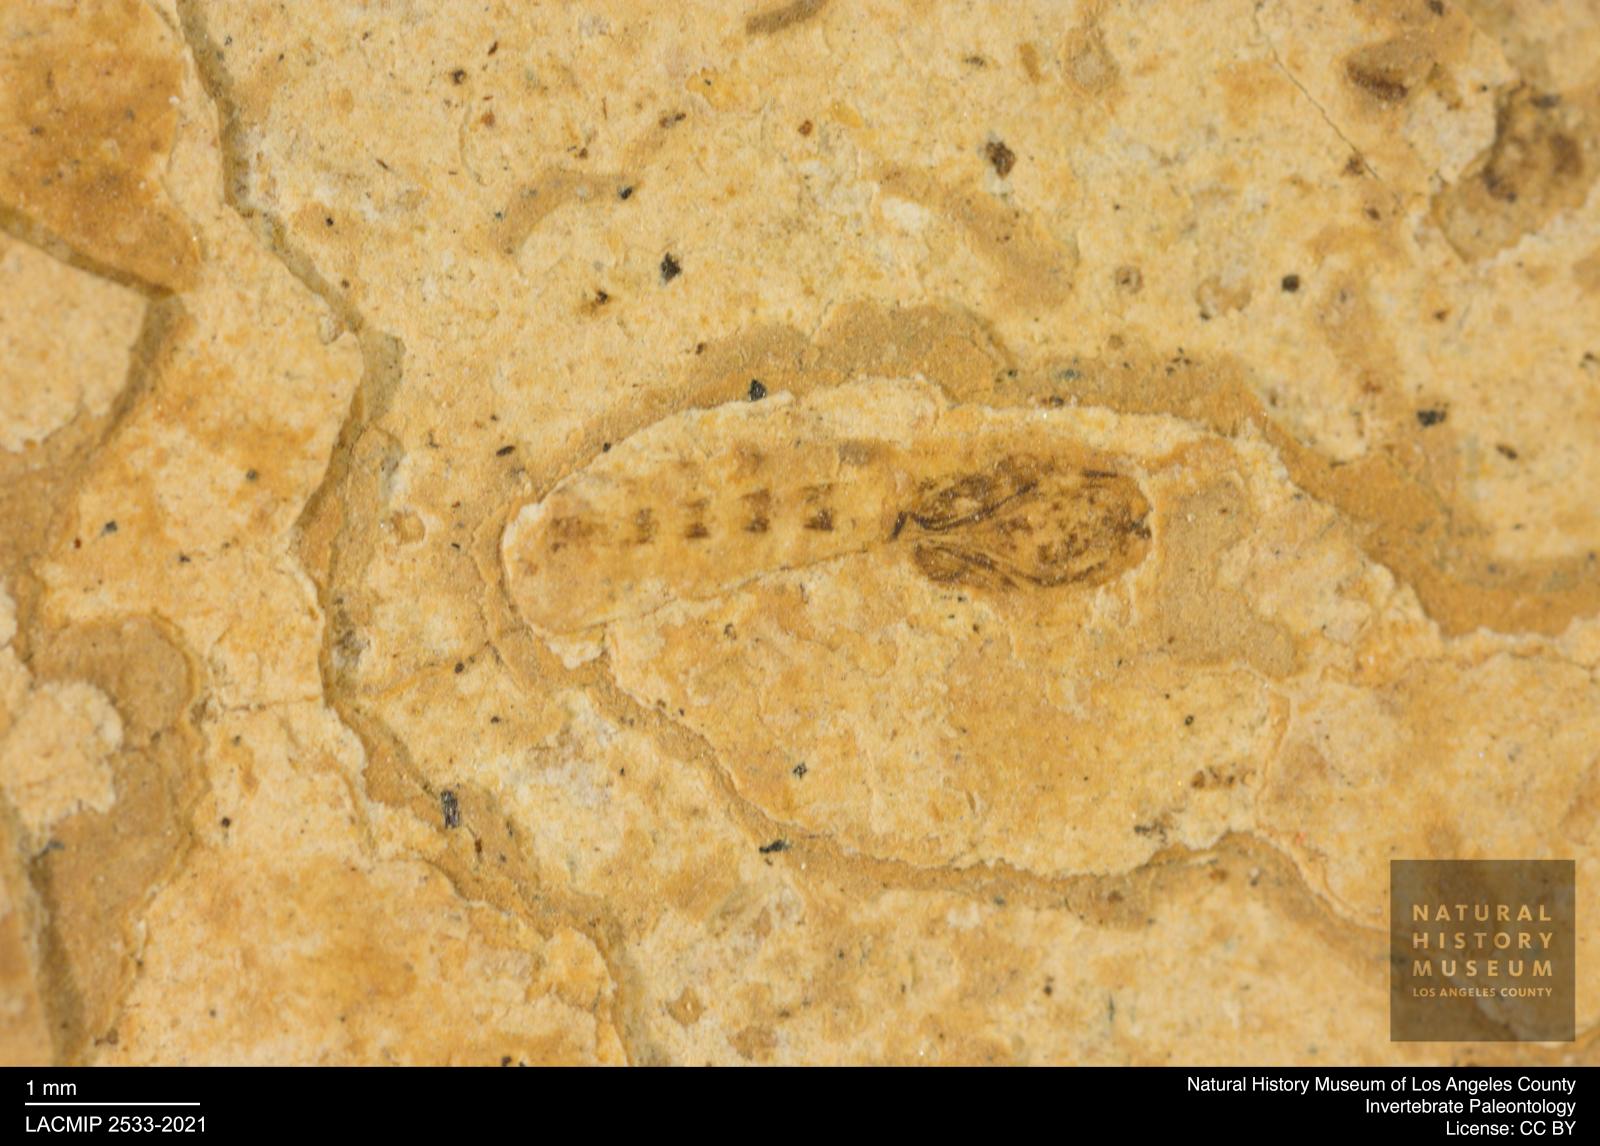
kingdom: Animalia
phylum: Arthropoda
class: Insecta
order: Diptera
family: Ceratopogonidae
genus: Ceratopogon
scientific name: Ceratopogon
